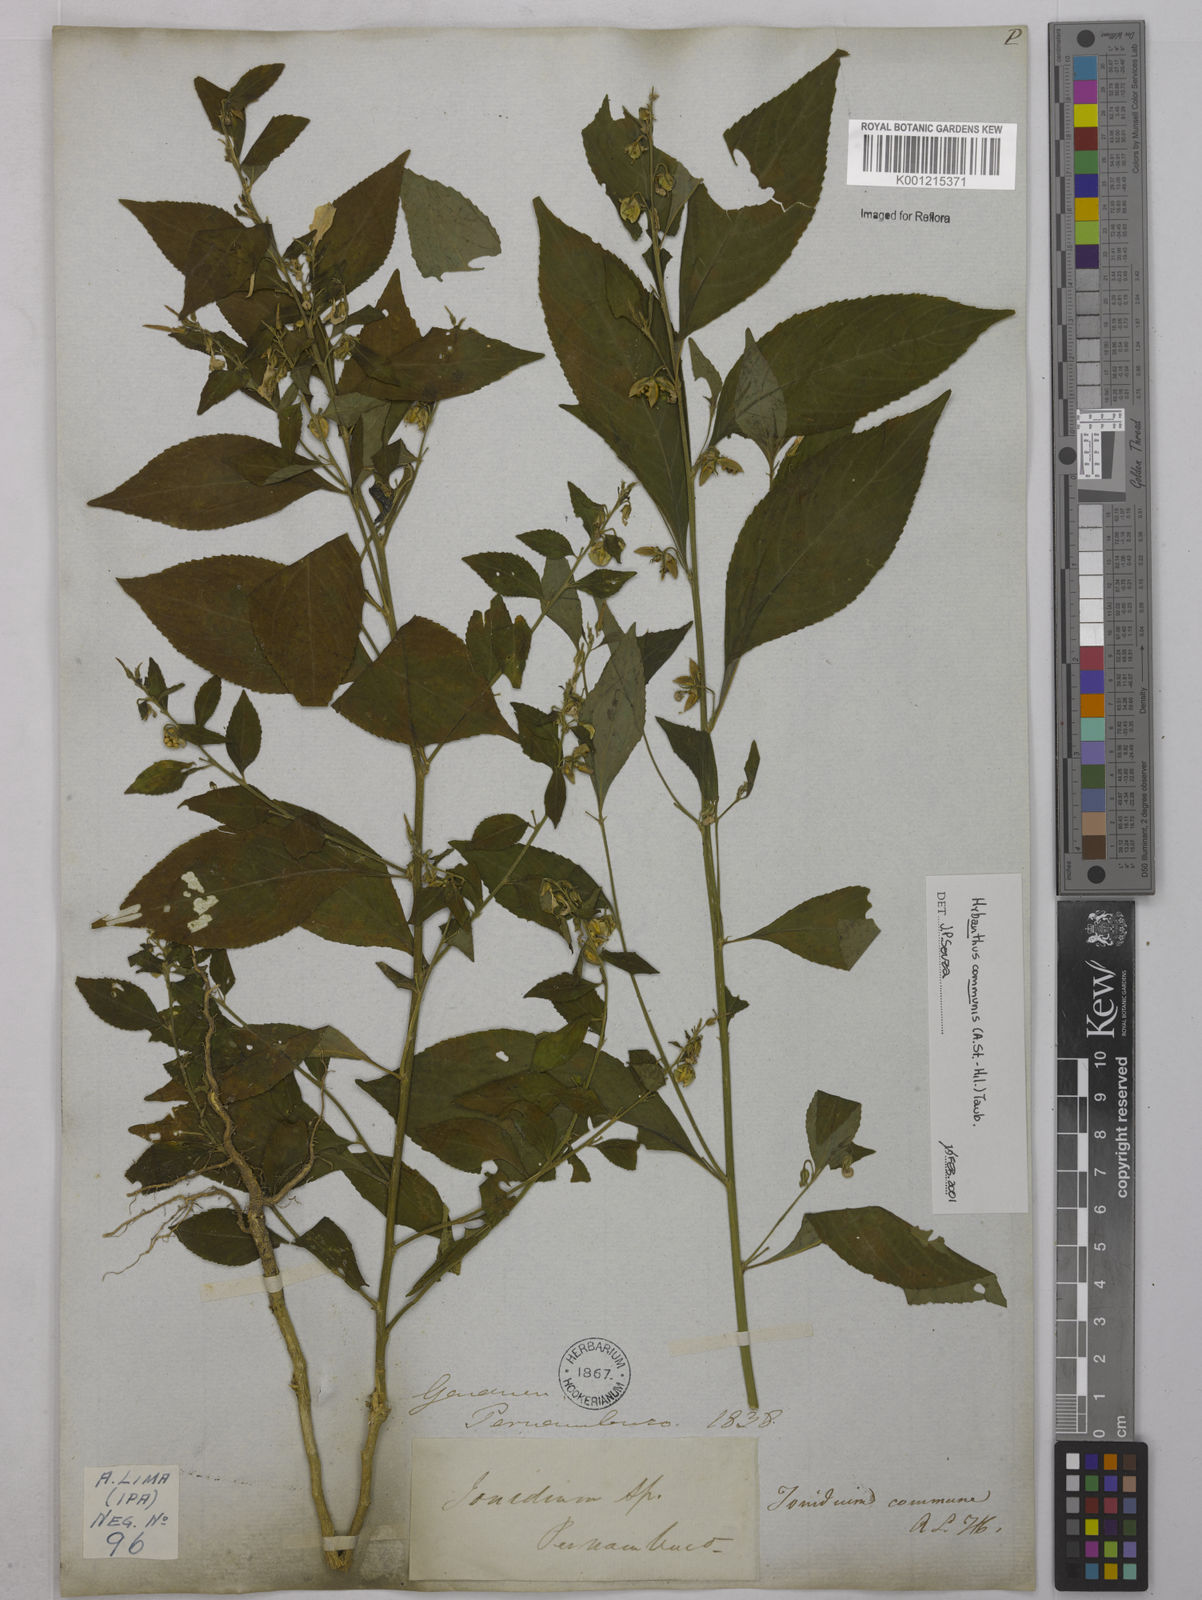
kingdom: Plantae
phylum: Tracheophyta
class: Magnoliopsida
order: Malpighiales
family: Violaceae
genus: Pombalia
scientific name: Pombalia communis
